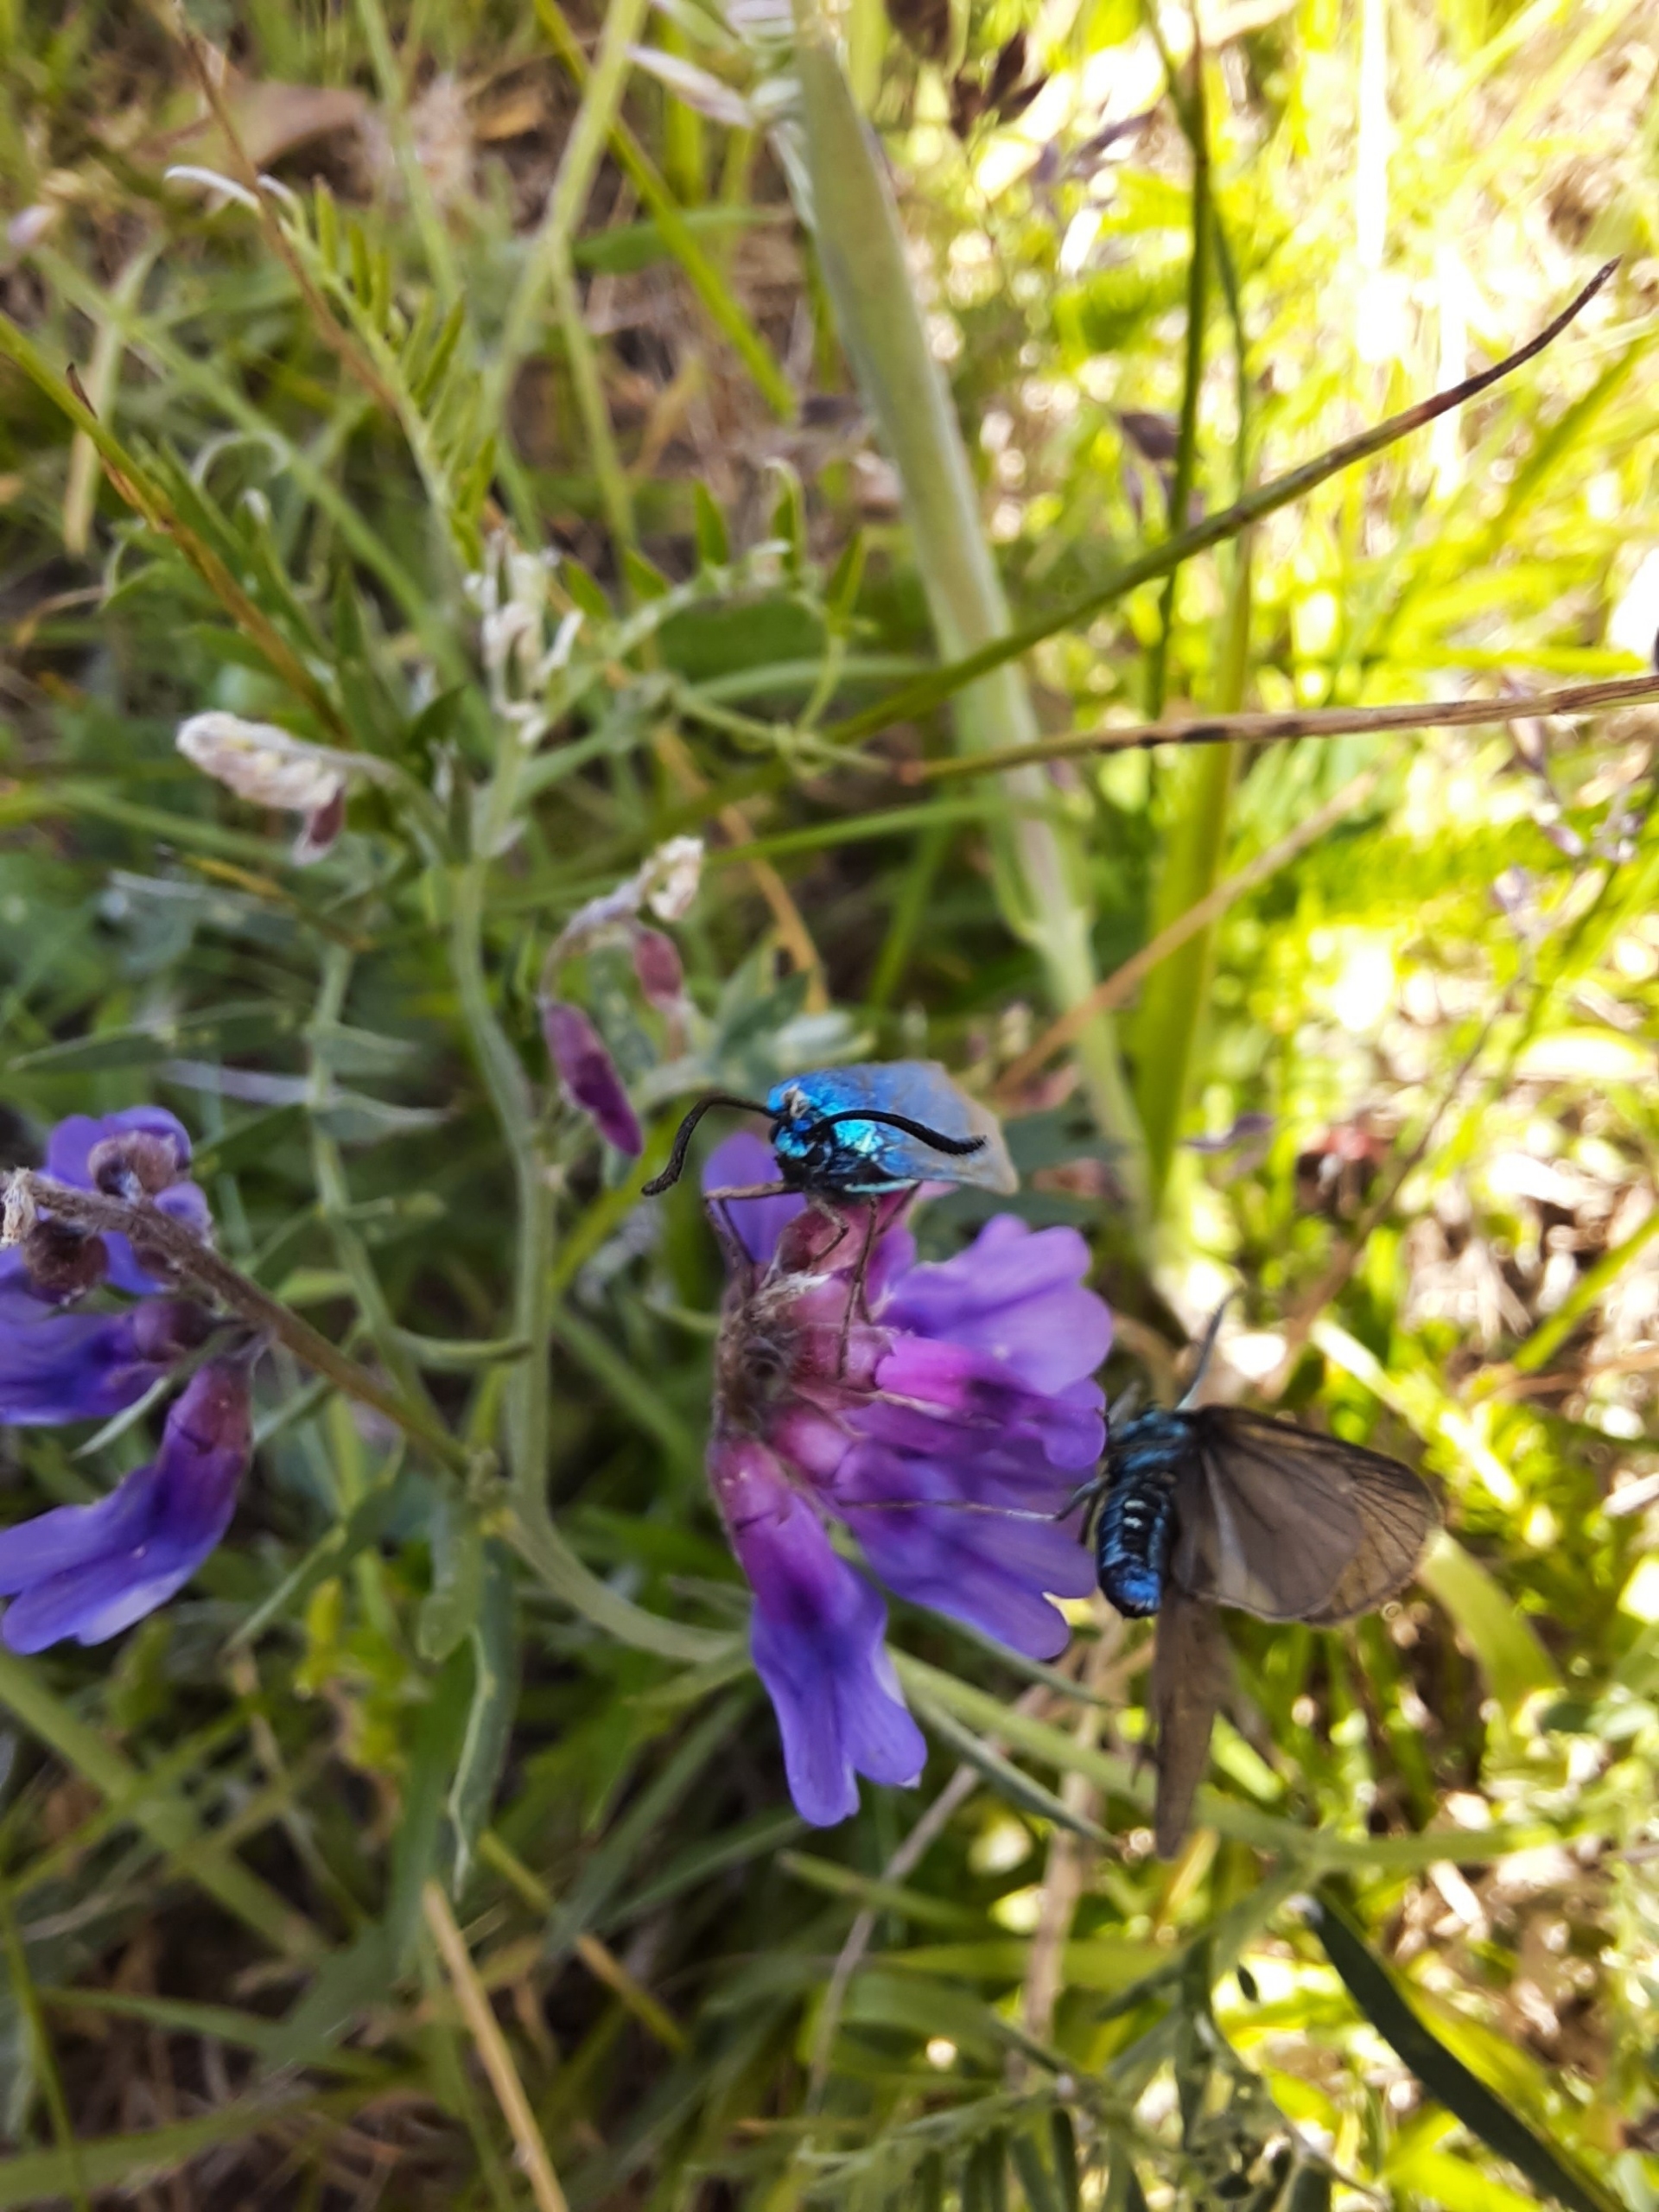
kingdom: Animalia
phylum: Arthropoda
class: Insecta
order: Lepidoptera
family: Zygaenidae
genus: Adscita
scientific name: Adscita statices
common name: Metalvinge
